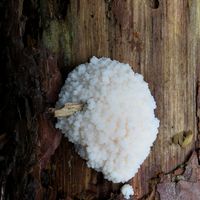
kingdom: Protozoa
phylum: Mycetozoa
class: Myxomycetes
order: Cribrariales
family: Tubiferaceae
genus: Reticularia
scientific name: Reticularia lycoperdon
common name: skinnende støvpude
